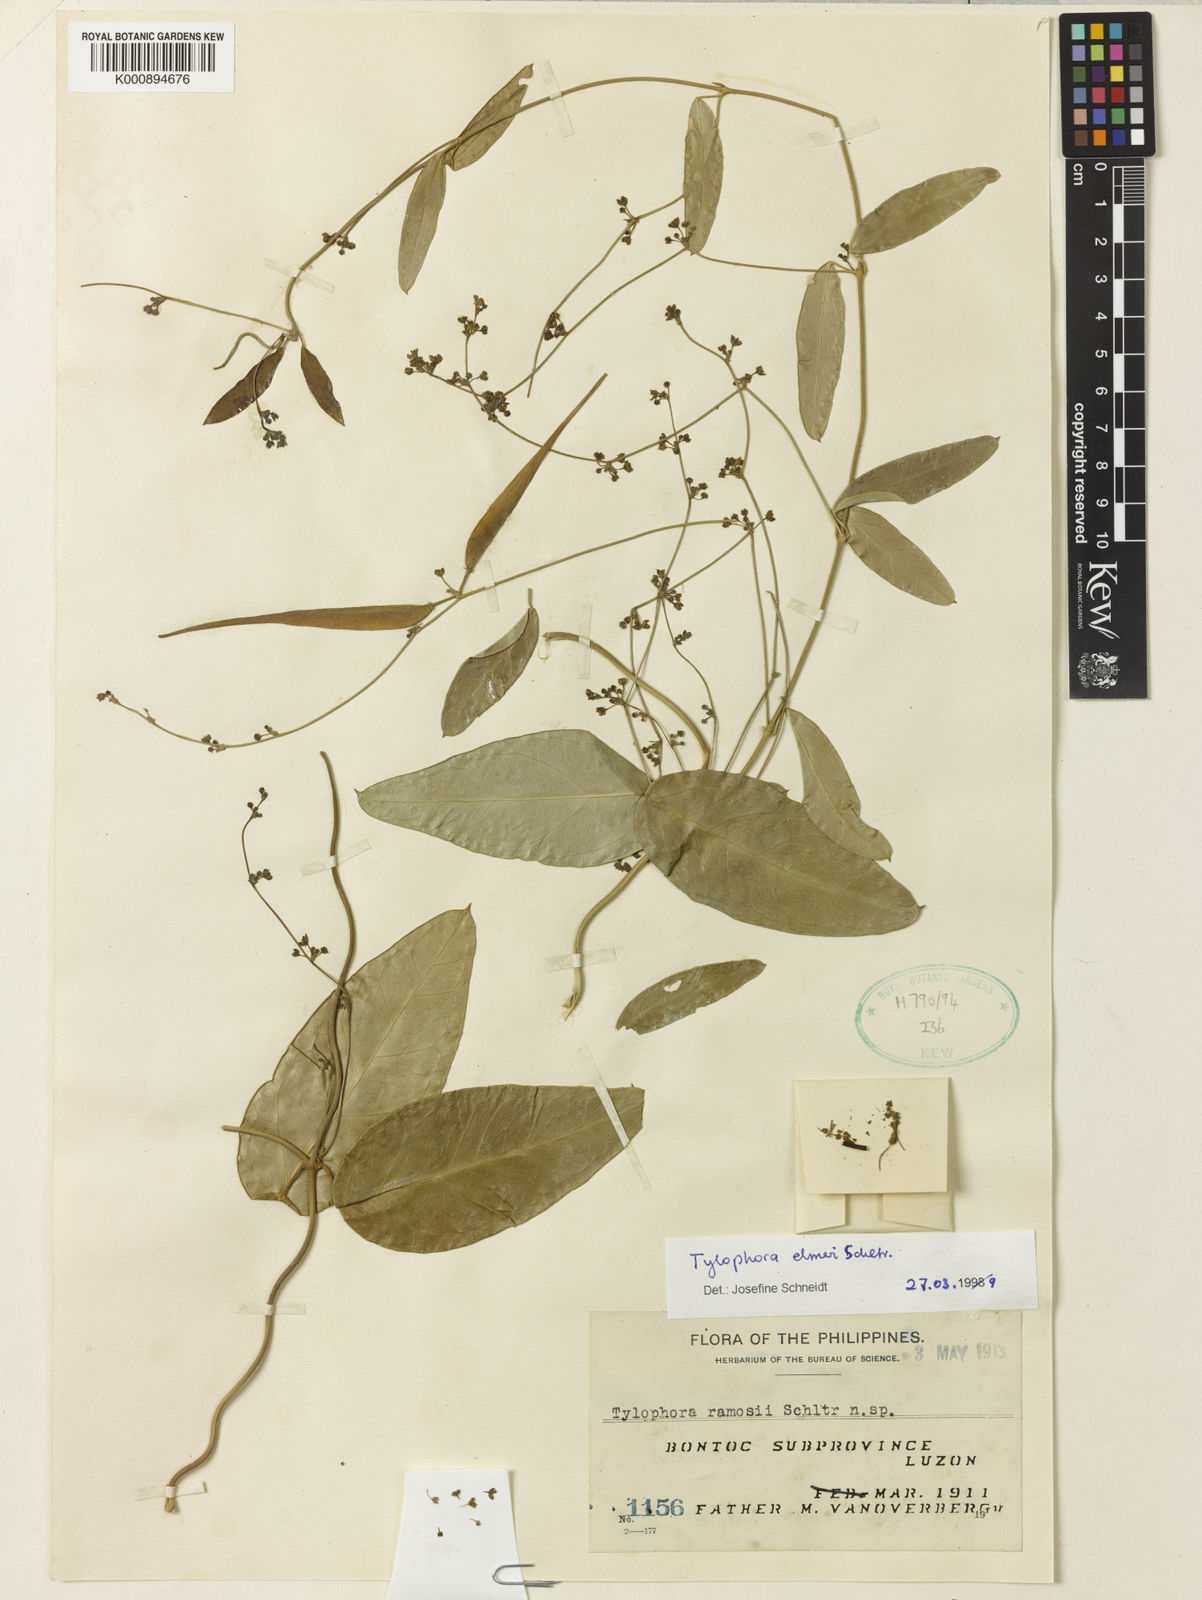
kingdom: Plantae
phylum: Tracheophyta
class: Magnoliopsida
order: Gentianales
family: Apocynaceae
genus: Vincetoxicum
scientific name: Vincetoxicum elmeri
